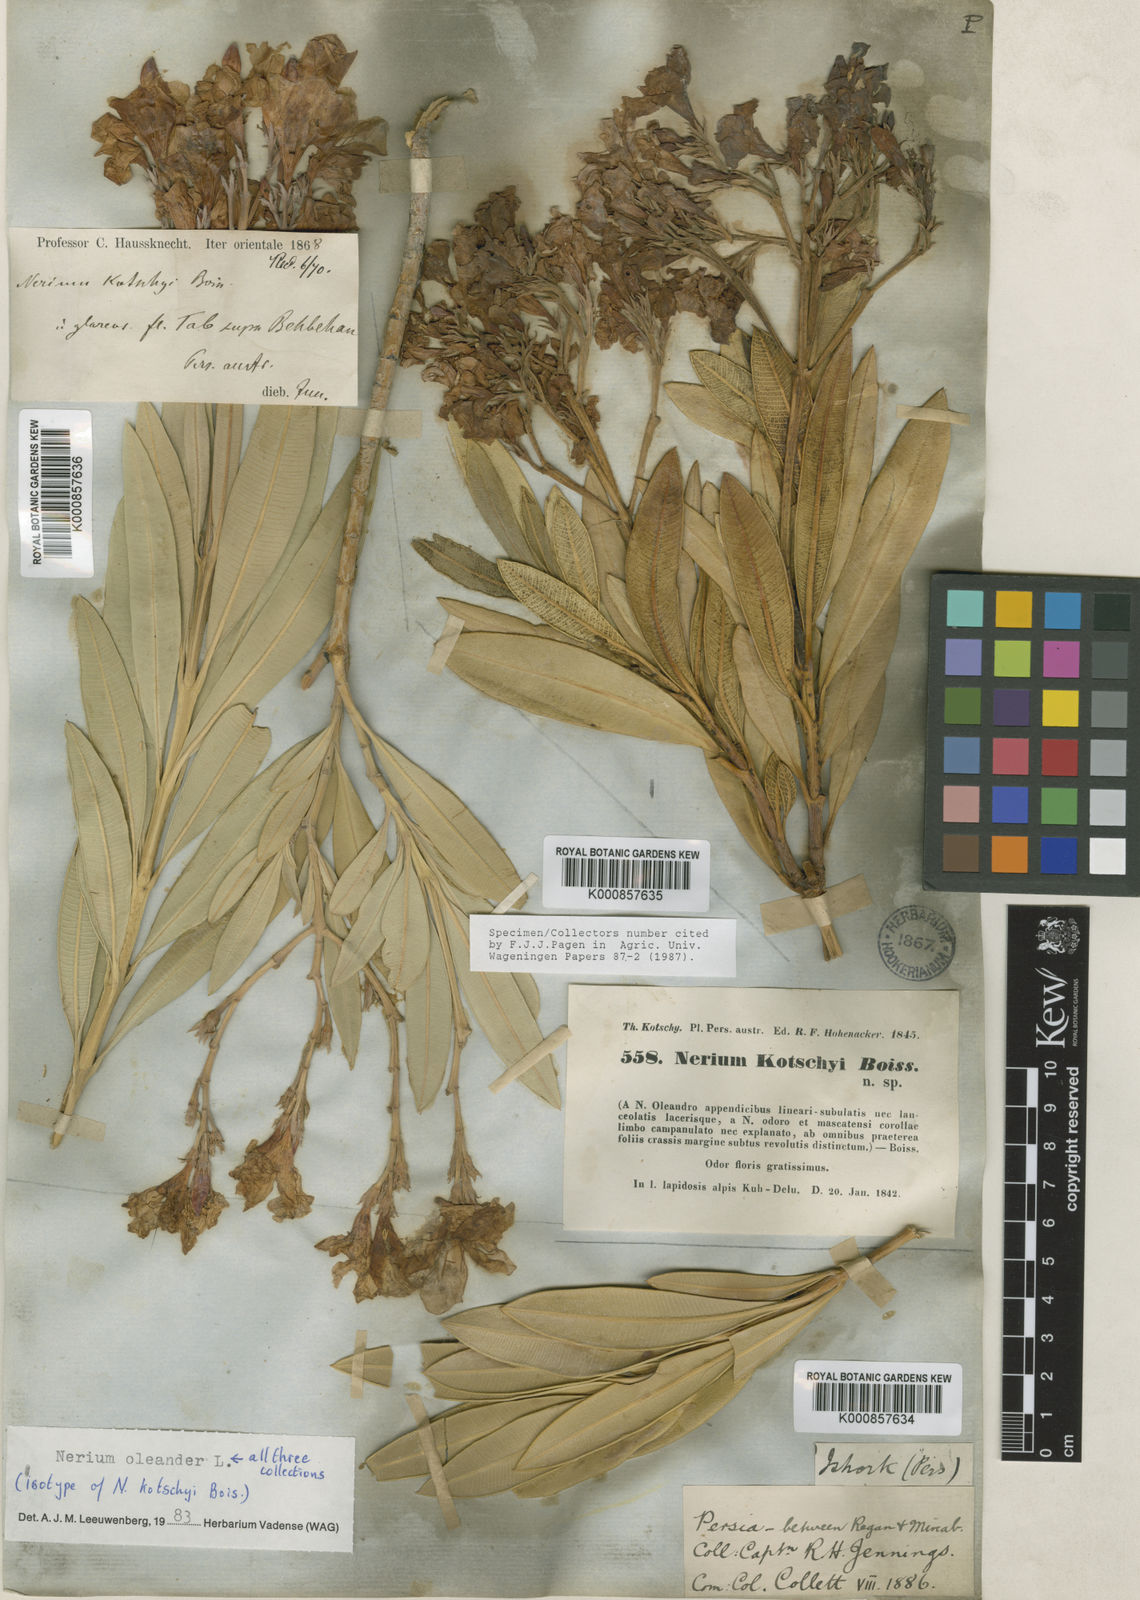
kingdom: Plantae
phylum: Tracheophyta
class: Magnoliopsida
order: Gentianales
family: Apocynaceae
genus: Nerium
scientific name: Nerium oleander
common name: Oleander
